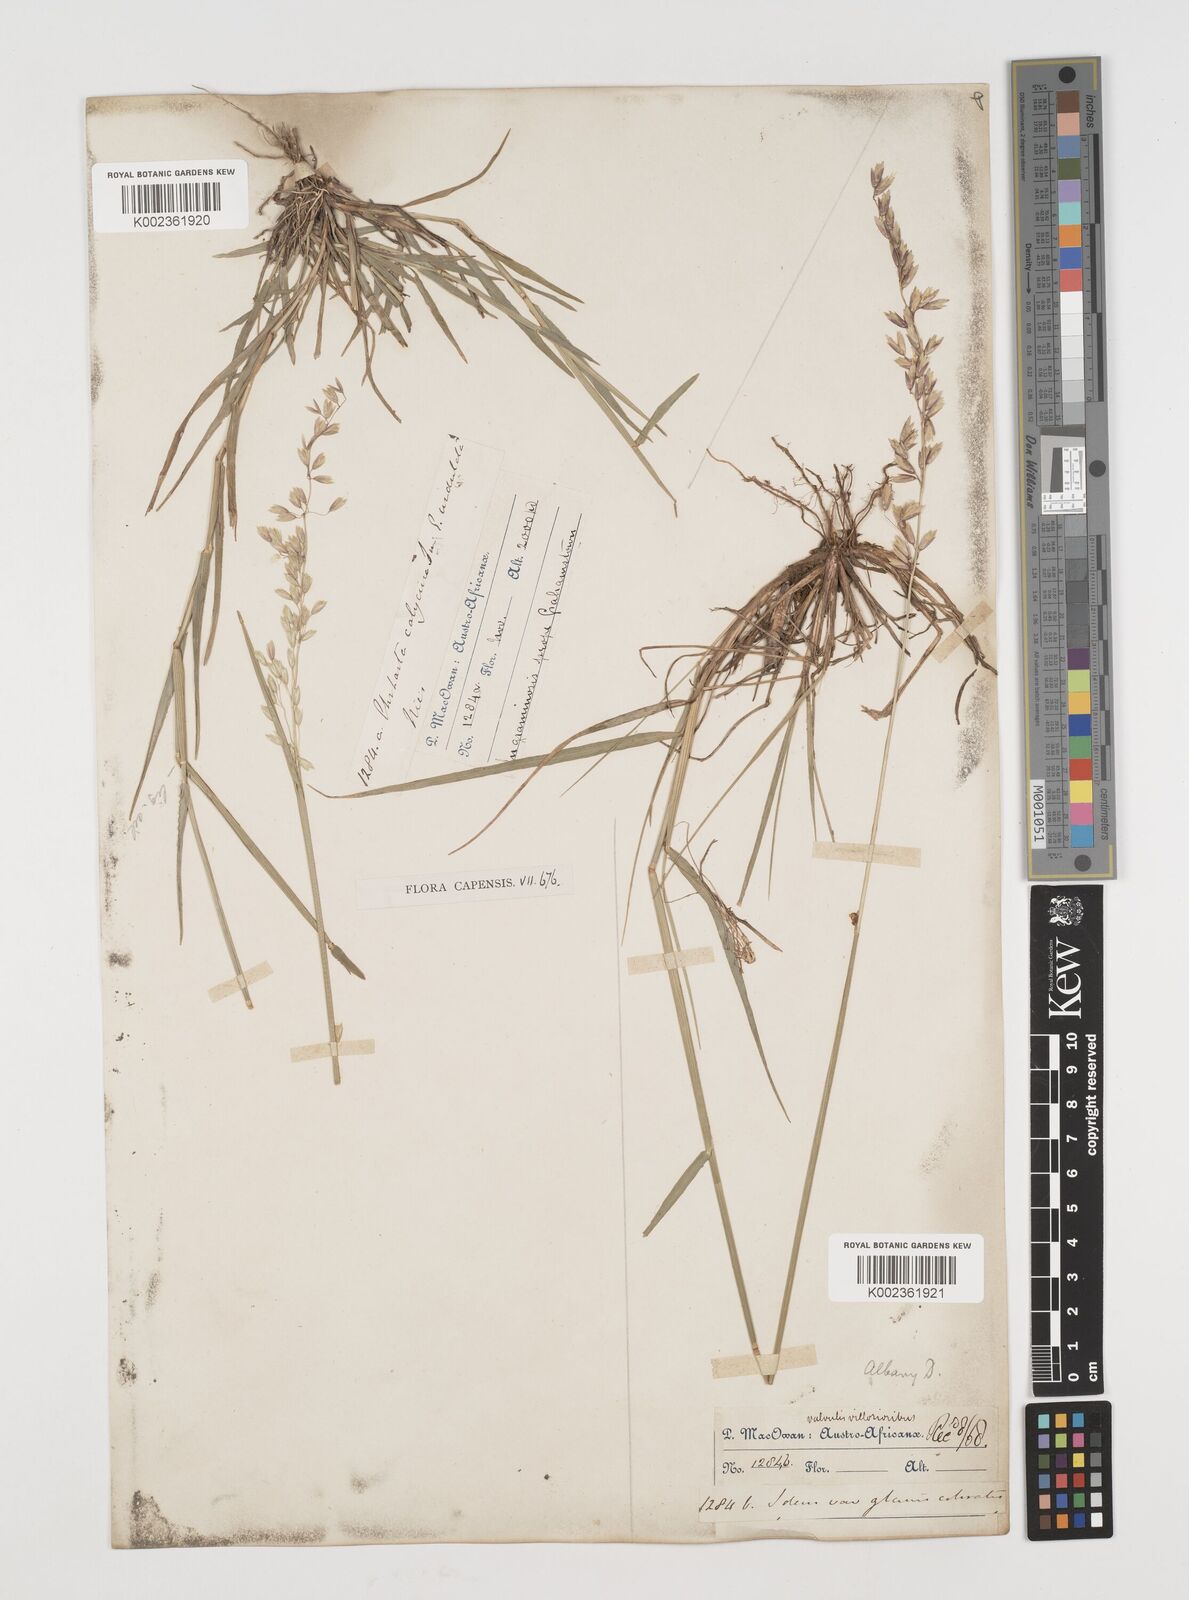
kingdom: Plantae
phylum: Tracheophyta
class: Liliopsida
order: Poales
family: Poaceae
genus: Ehrharta
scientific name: Ehrharta calycina
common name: Perennial veldtgrass
